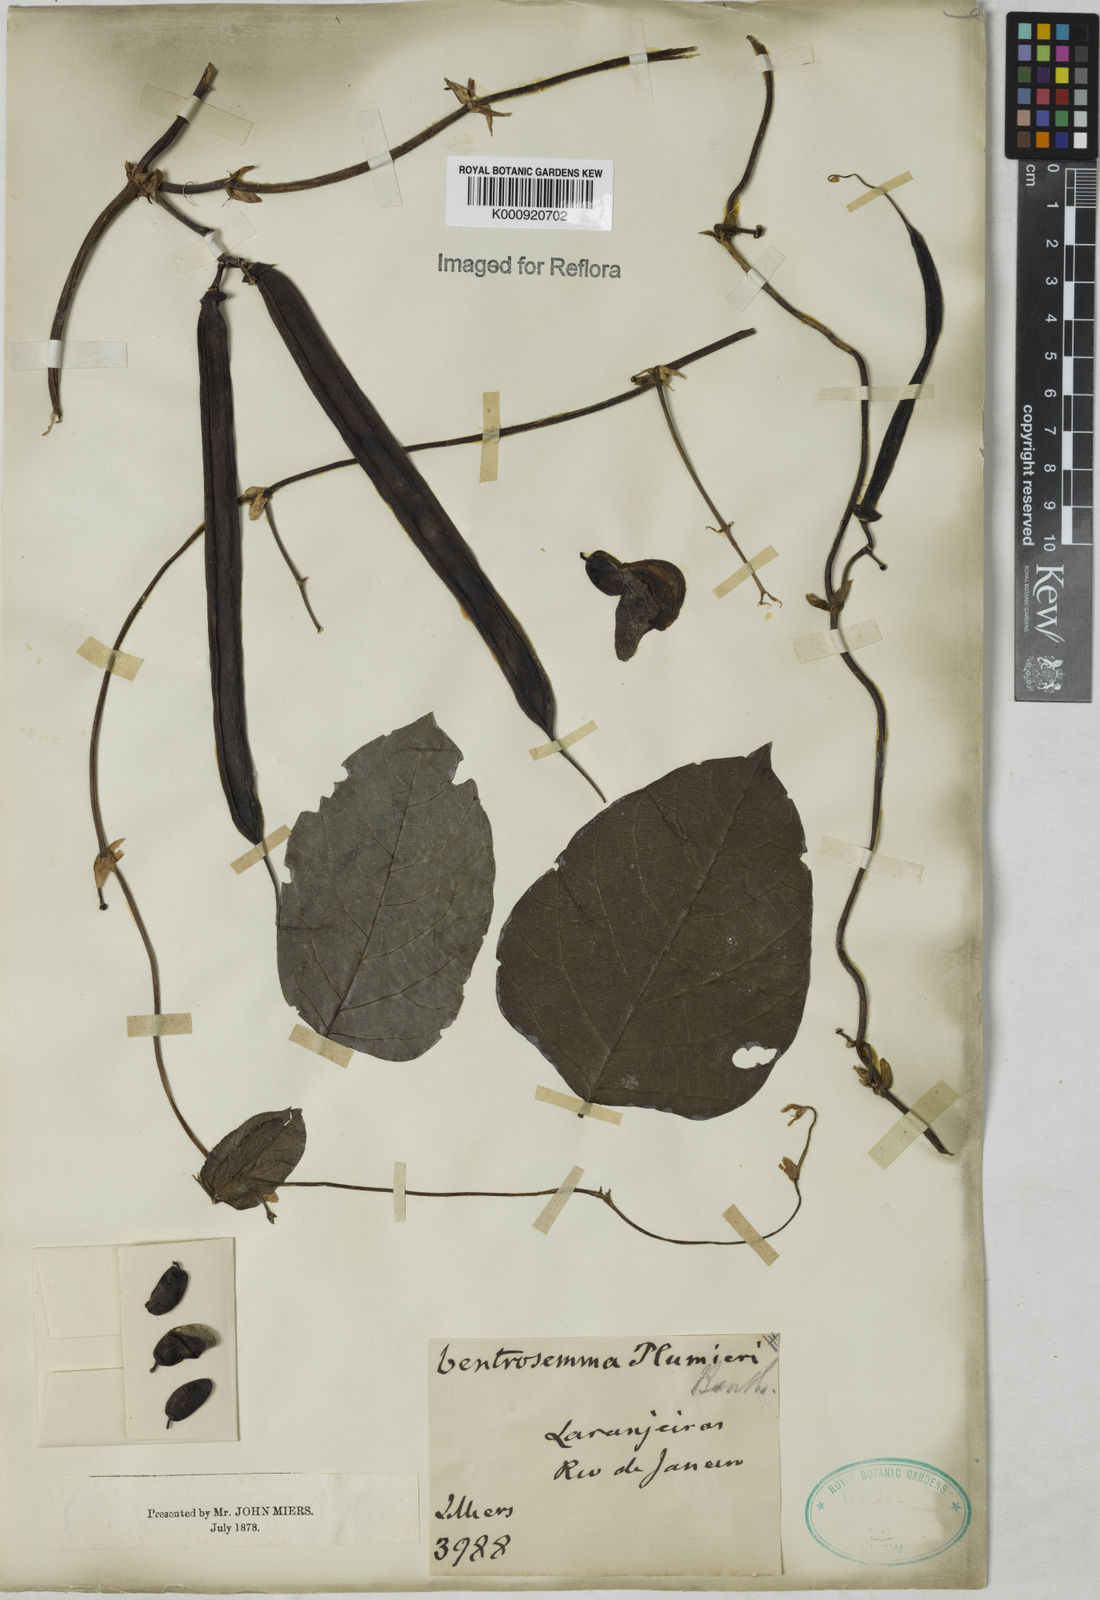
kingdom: Plantae
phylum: Tracheophyta
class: Magnoliopsida
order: Fabales
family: Fabaceae
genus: Centrosema
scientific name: Centrosema plumieri
